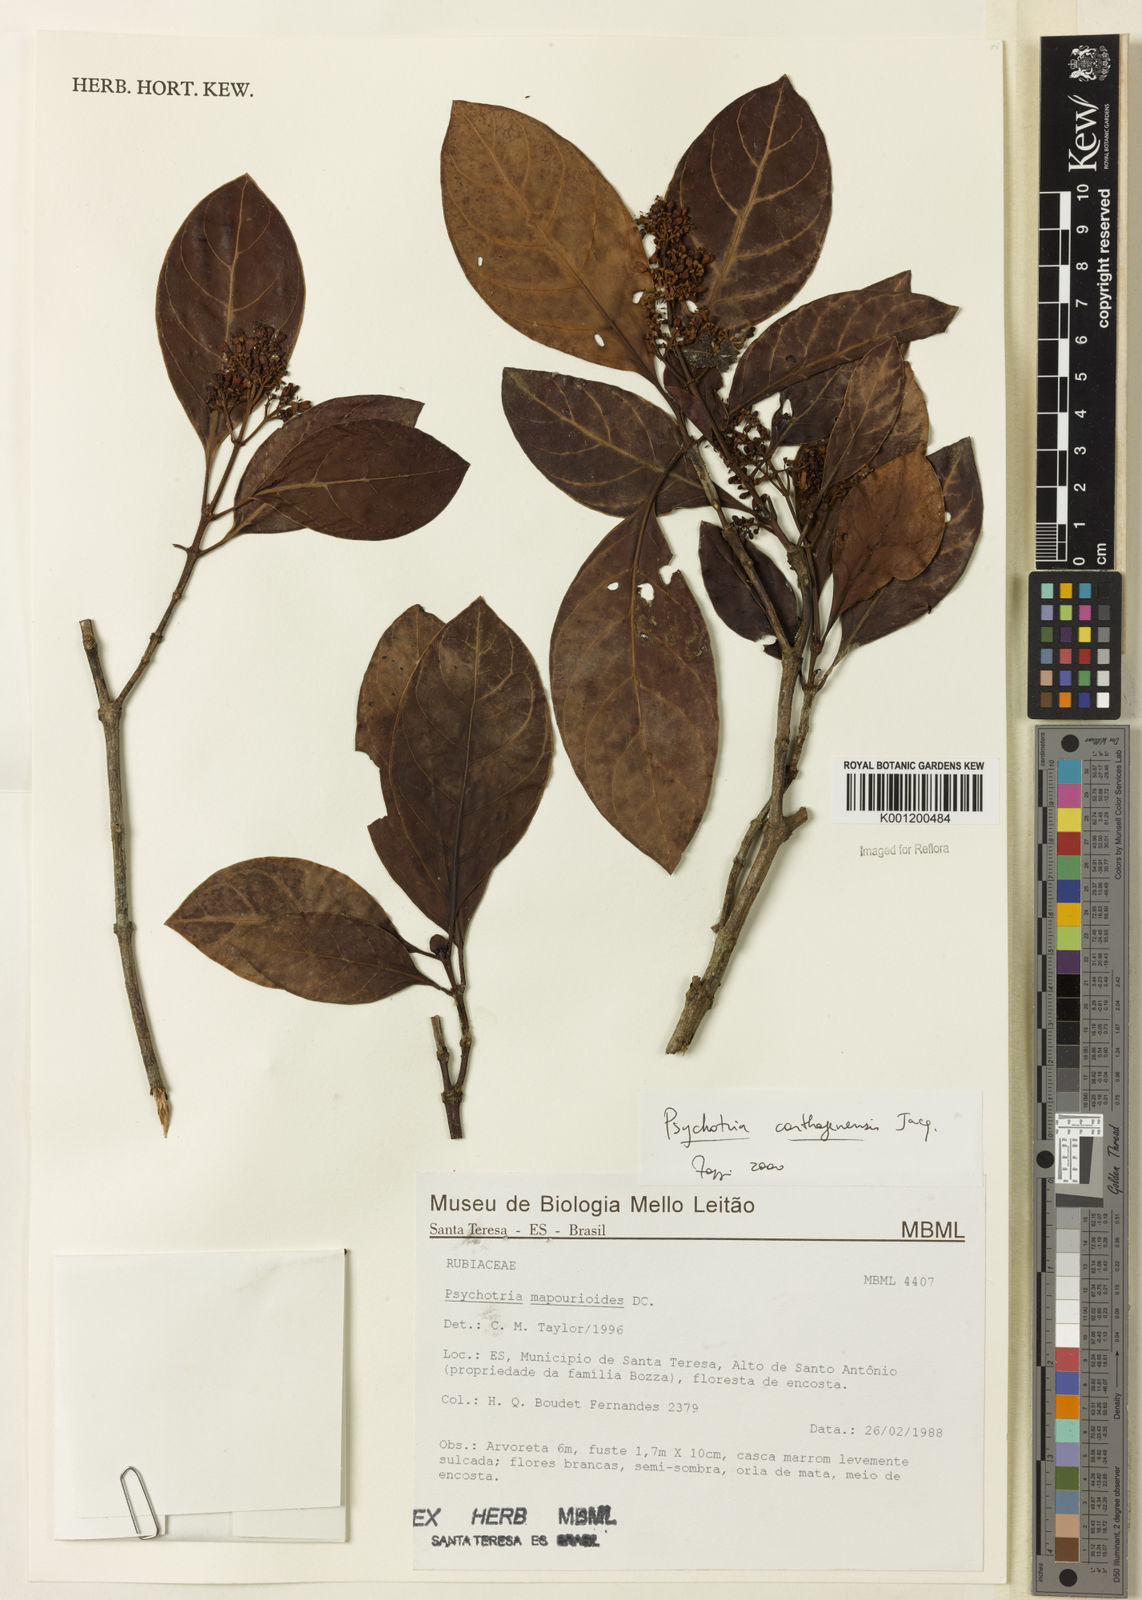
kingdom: Plantae
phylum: Tracheophyta
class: Magnoliopsida
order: Gentianales
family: Rubiaceae
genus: Psychotria
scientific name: Psychotria carthagenensis
